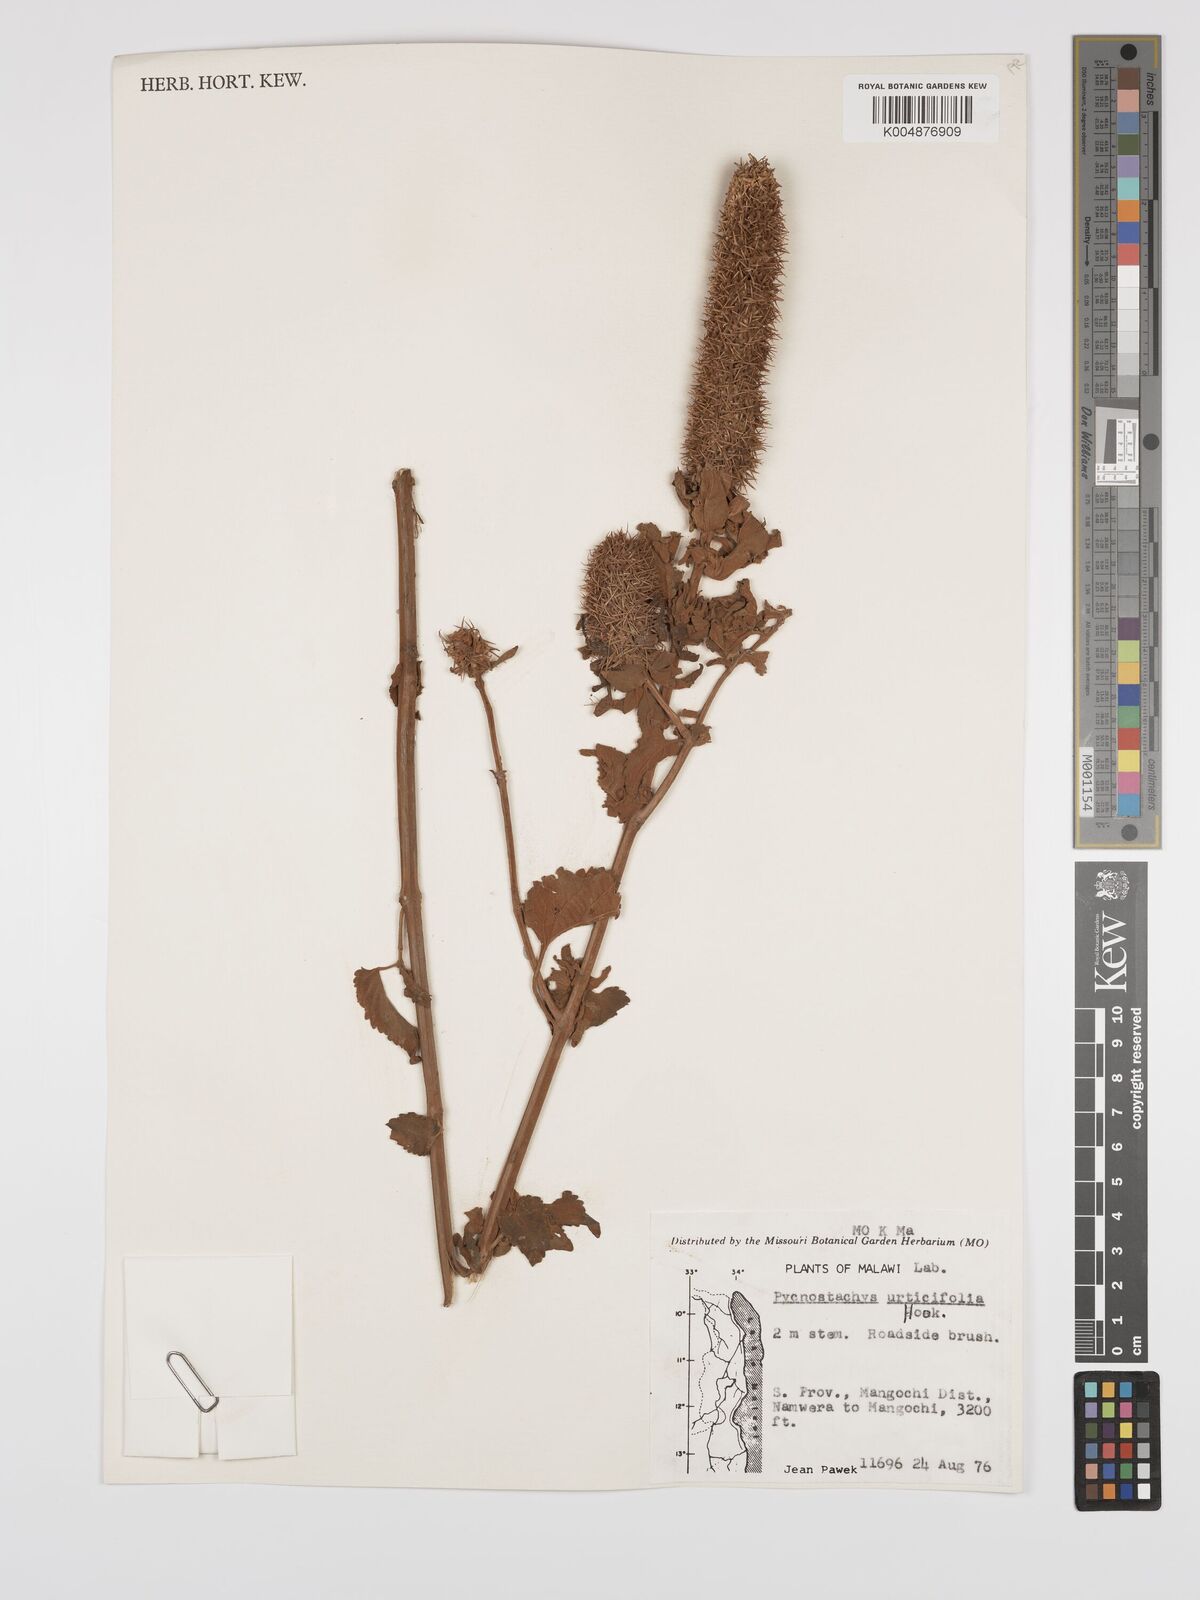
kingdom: Plantae
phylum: Tracheophyta
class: Magnoliopsida
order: Lamiales
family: Lamiaceae
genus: Coleus
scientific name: Coleus livingstonei
